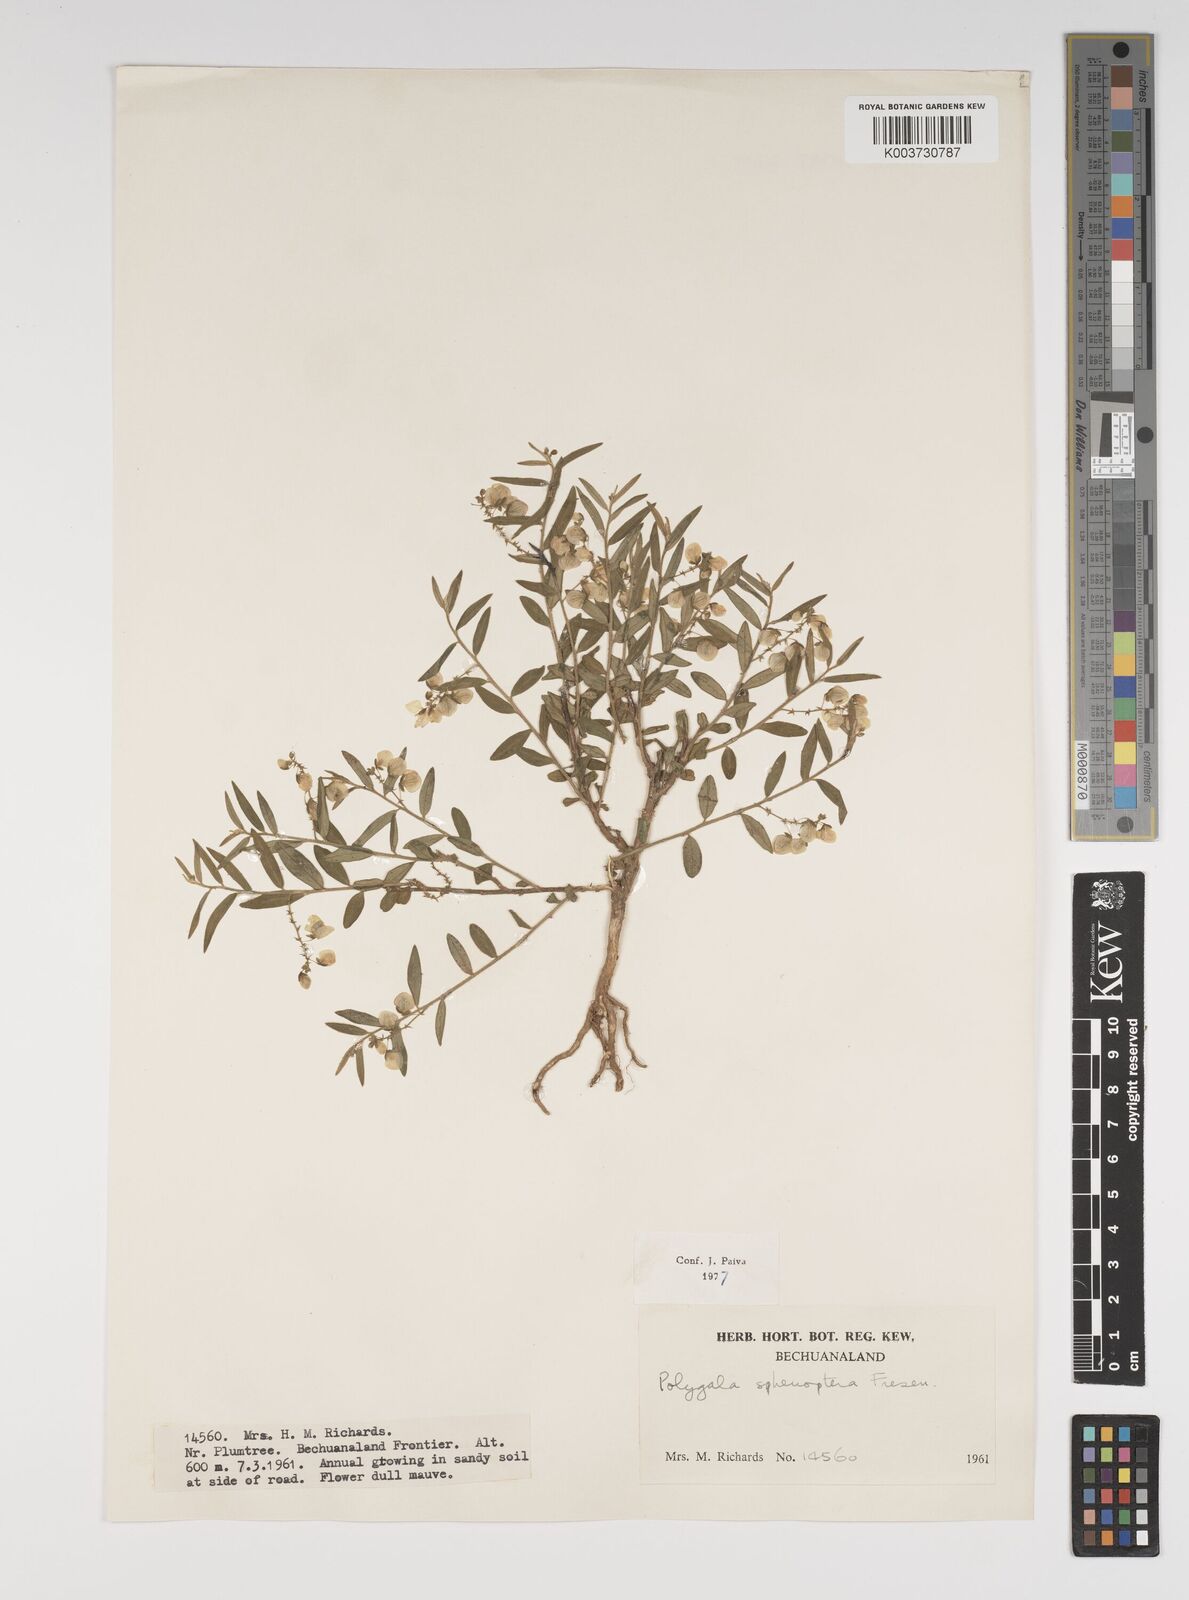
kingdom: Plantae
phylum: Tracheophyta
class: Magnoliopsida
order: Fabales
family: Polygalaceae
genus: Polygala
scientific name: Polygala sphenoptera
